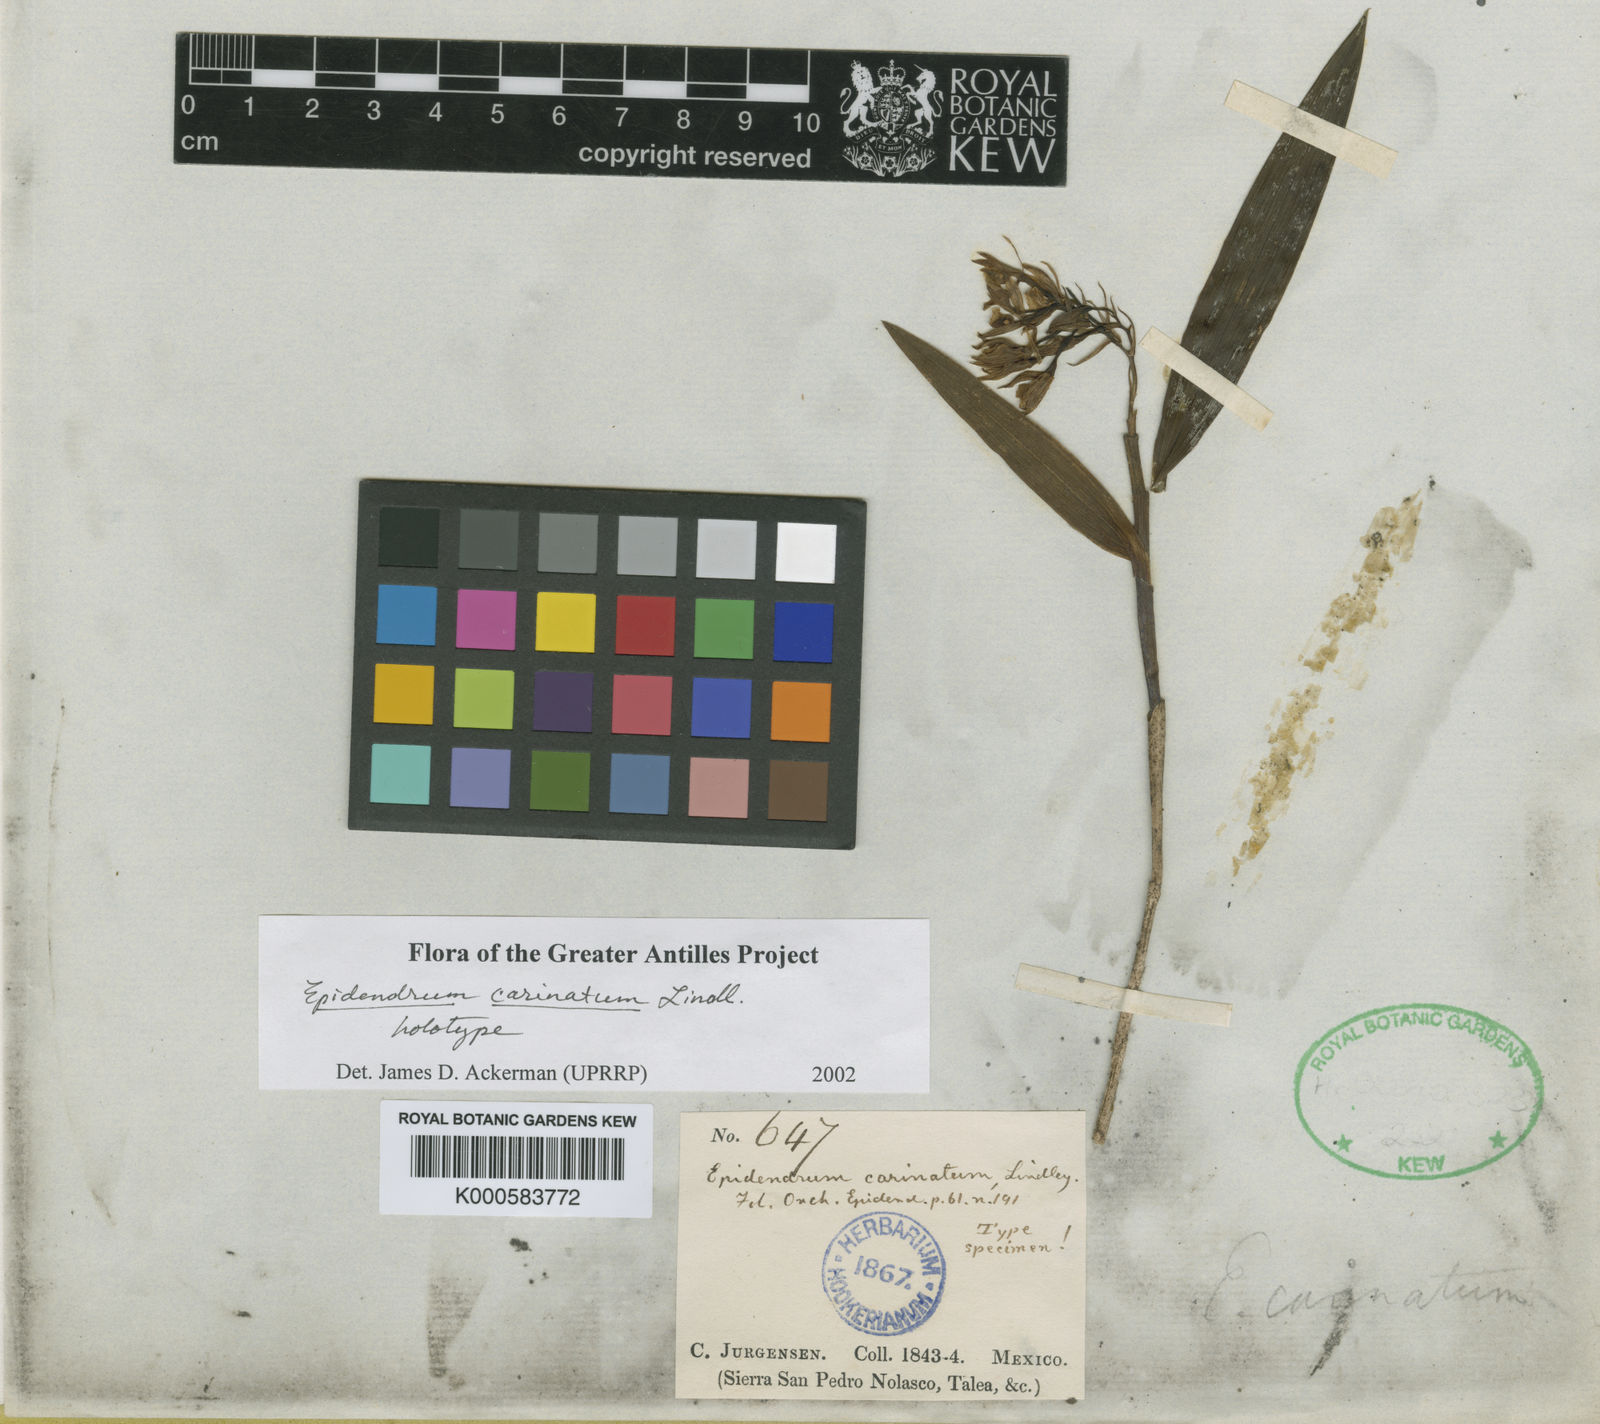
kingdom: Plantae
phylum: Tracheophyta
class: Liliopsida
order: Asparagales
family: Orchidaceae
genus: Epidendrum
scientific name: Epidendrum eustirum
